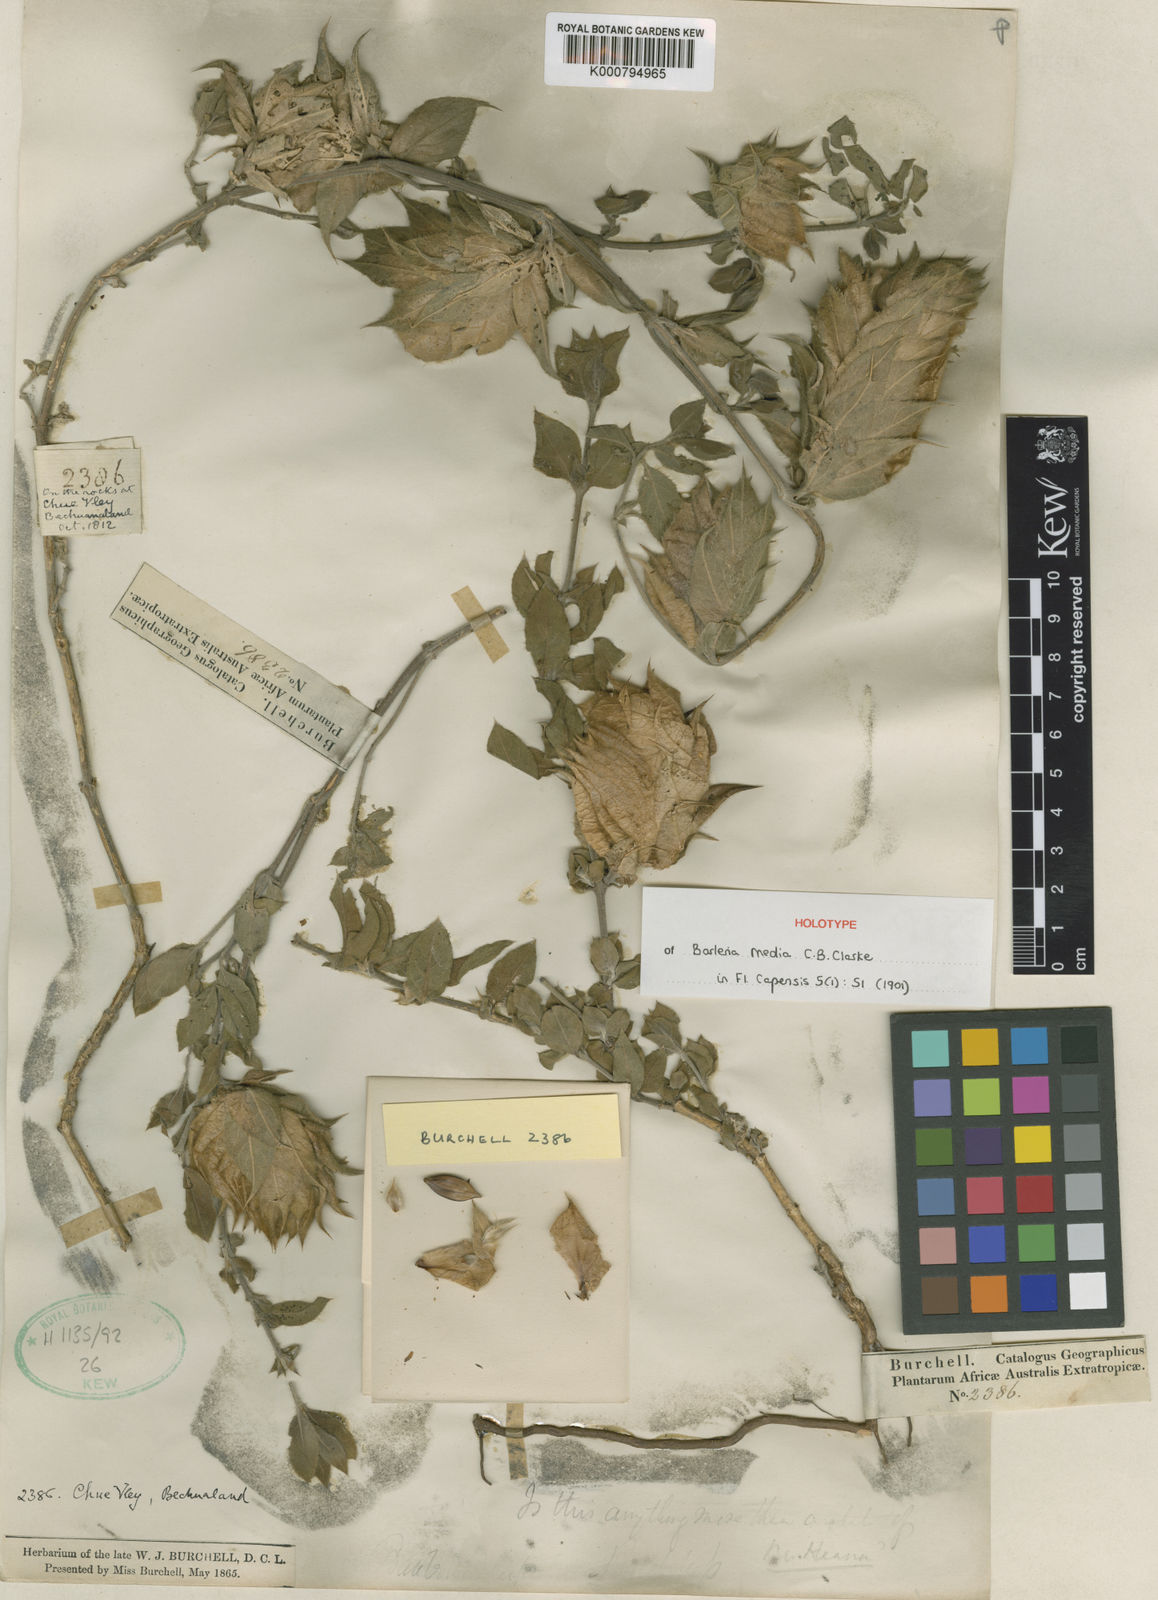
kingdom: Plantae
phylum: Tracheophyta
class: Magnoliopsida
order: Lamiales
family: Acanthaceae
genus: Barleria
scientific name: Barleria media
